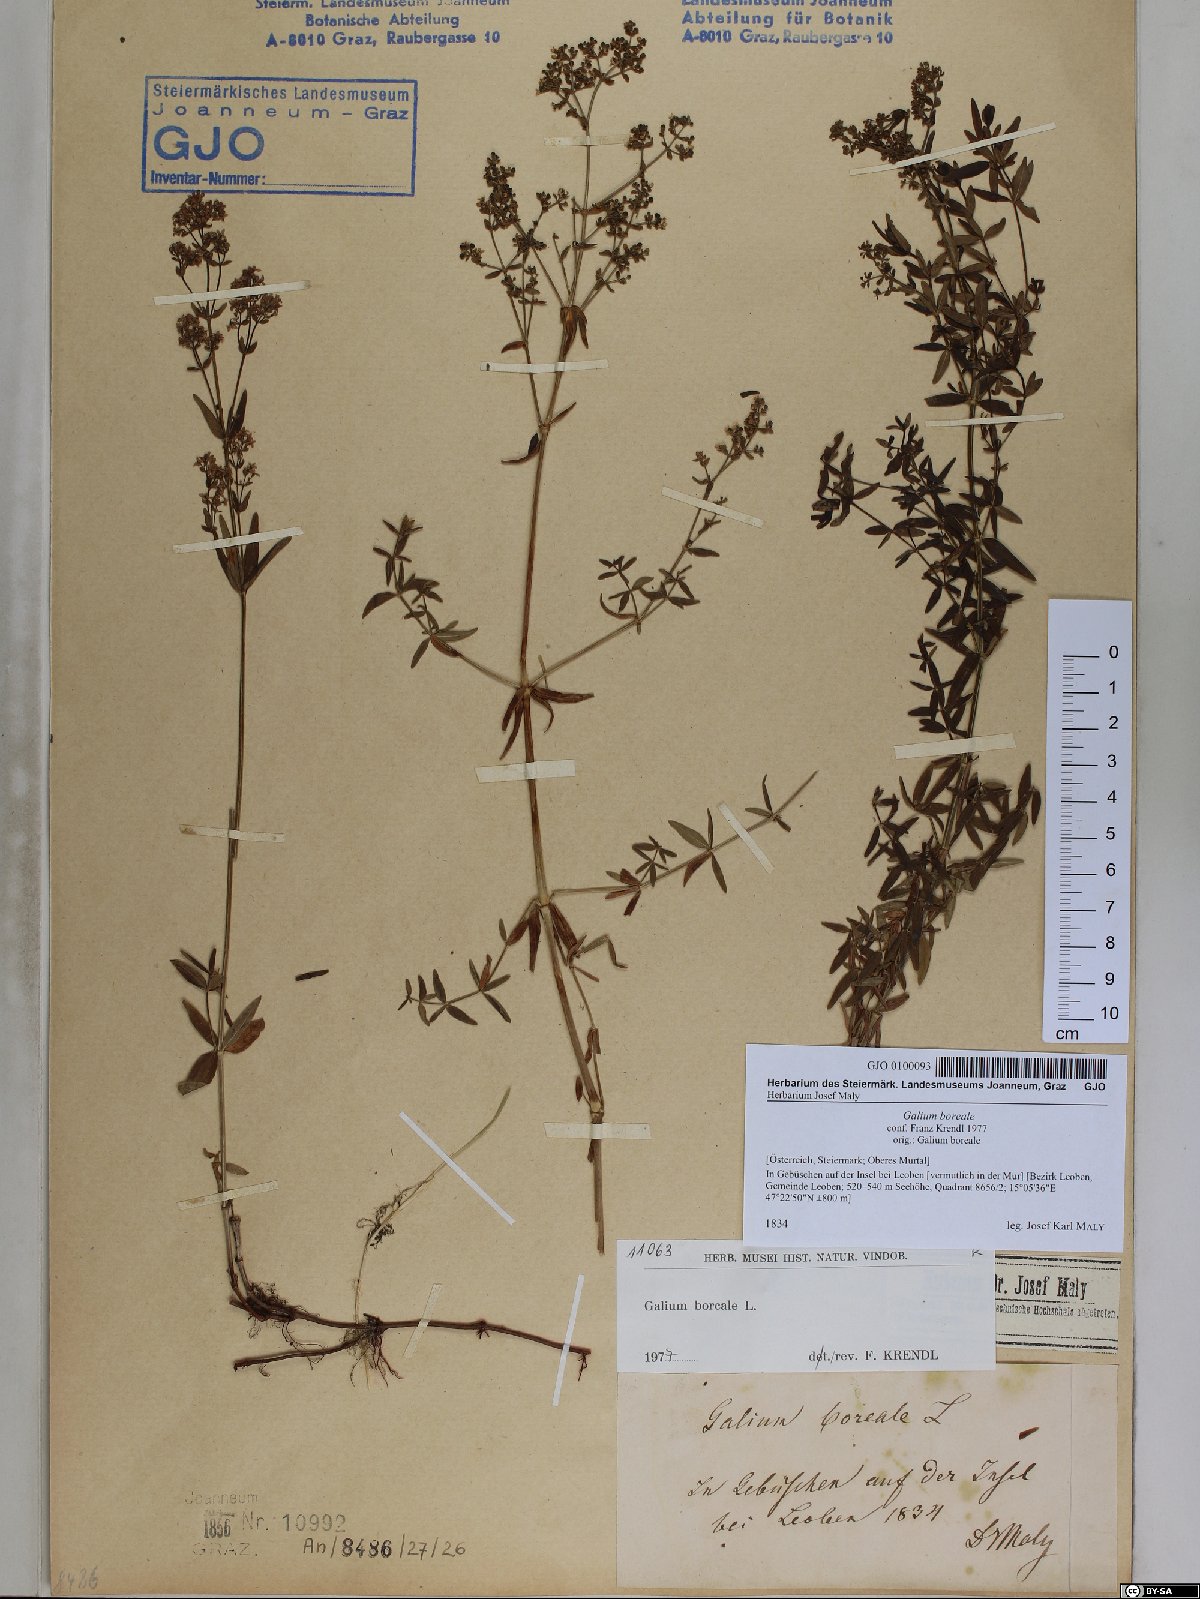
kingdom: Plantae
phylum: Tracheophyta
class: Magnoliopsida
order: Gentianales
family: Rubiaceae
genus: Galium
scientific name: Galium boreale
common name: Northern bedstraw
